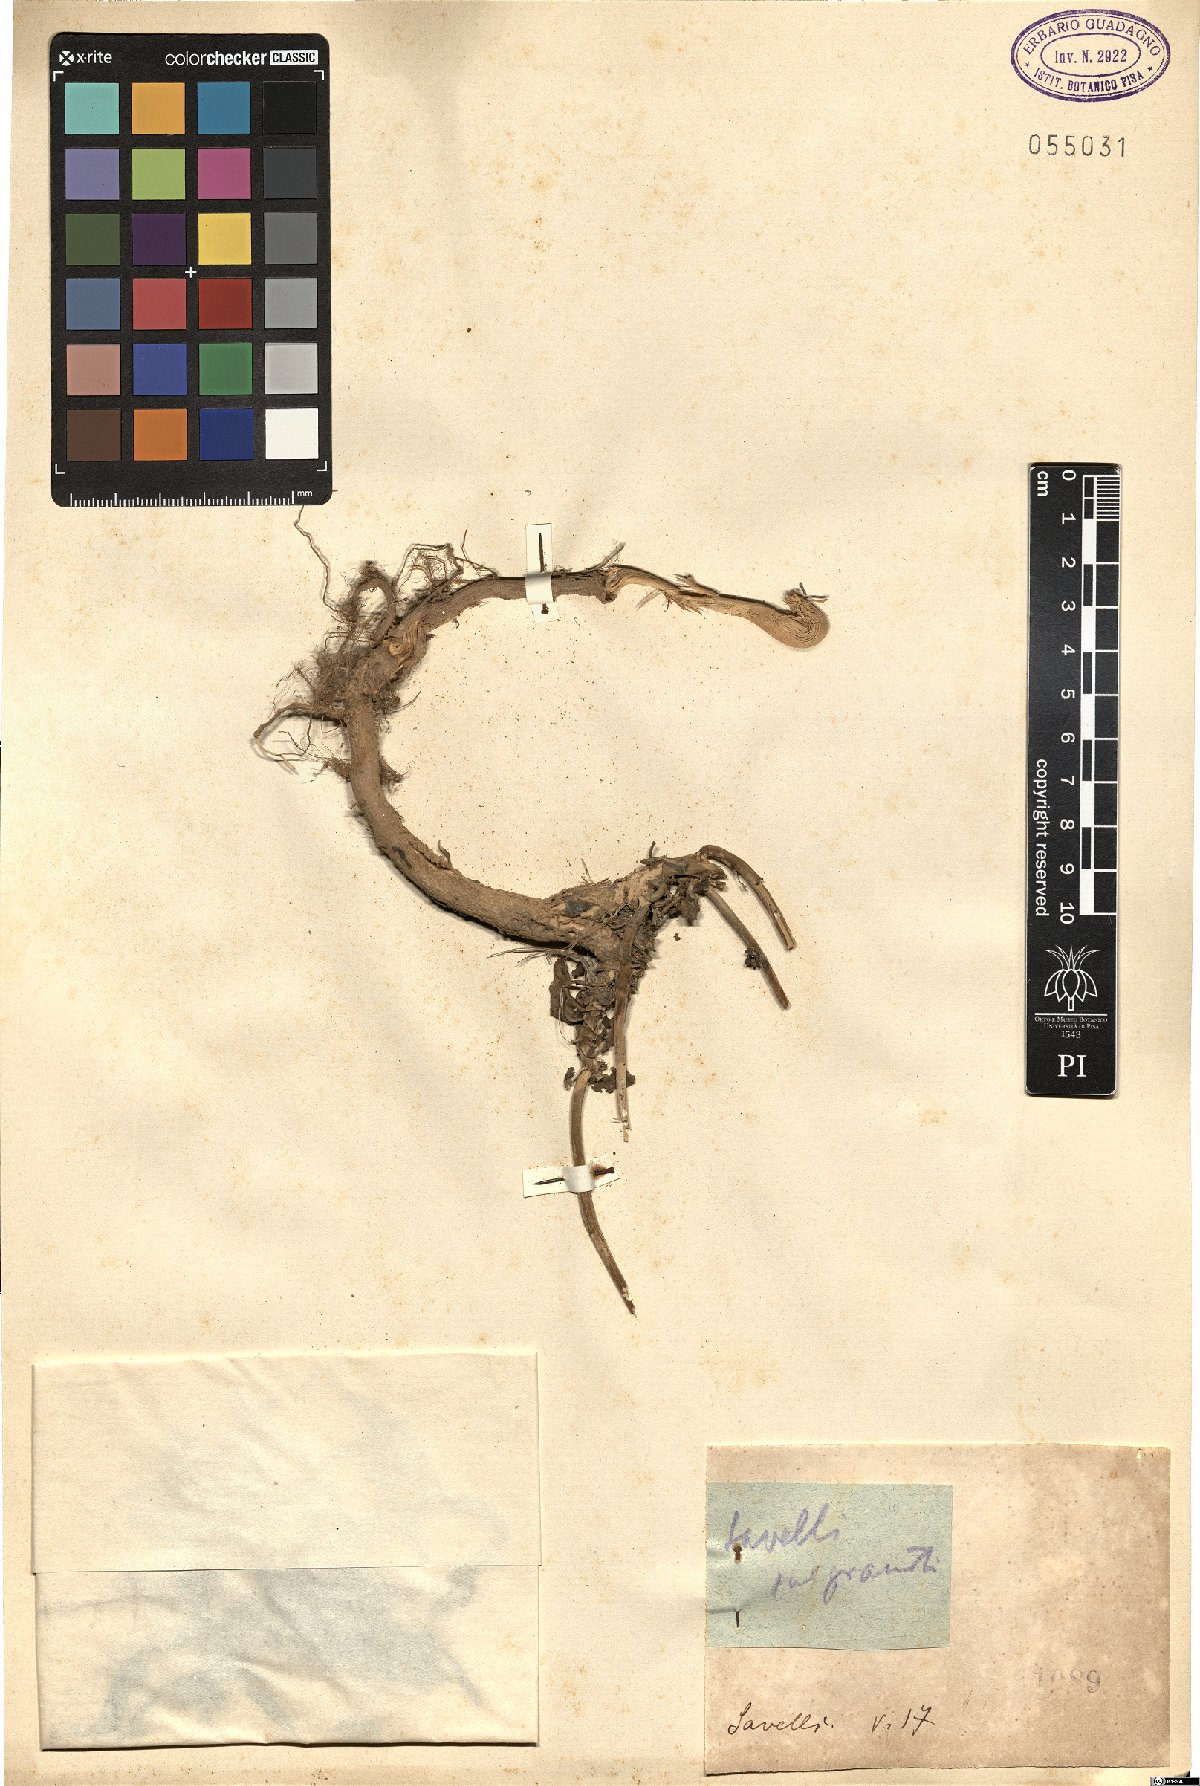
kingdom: Plantae
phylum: Tracheophyta
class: Magnoliopsida
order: Dipsacales
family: Caprifoliaceae
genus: Centranthus
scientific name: Centranthus
